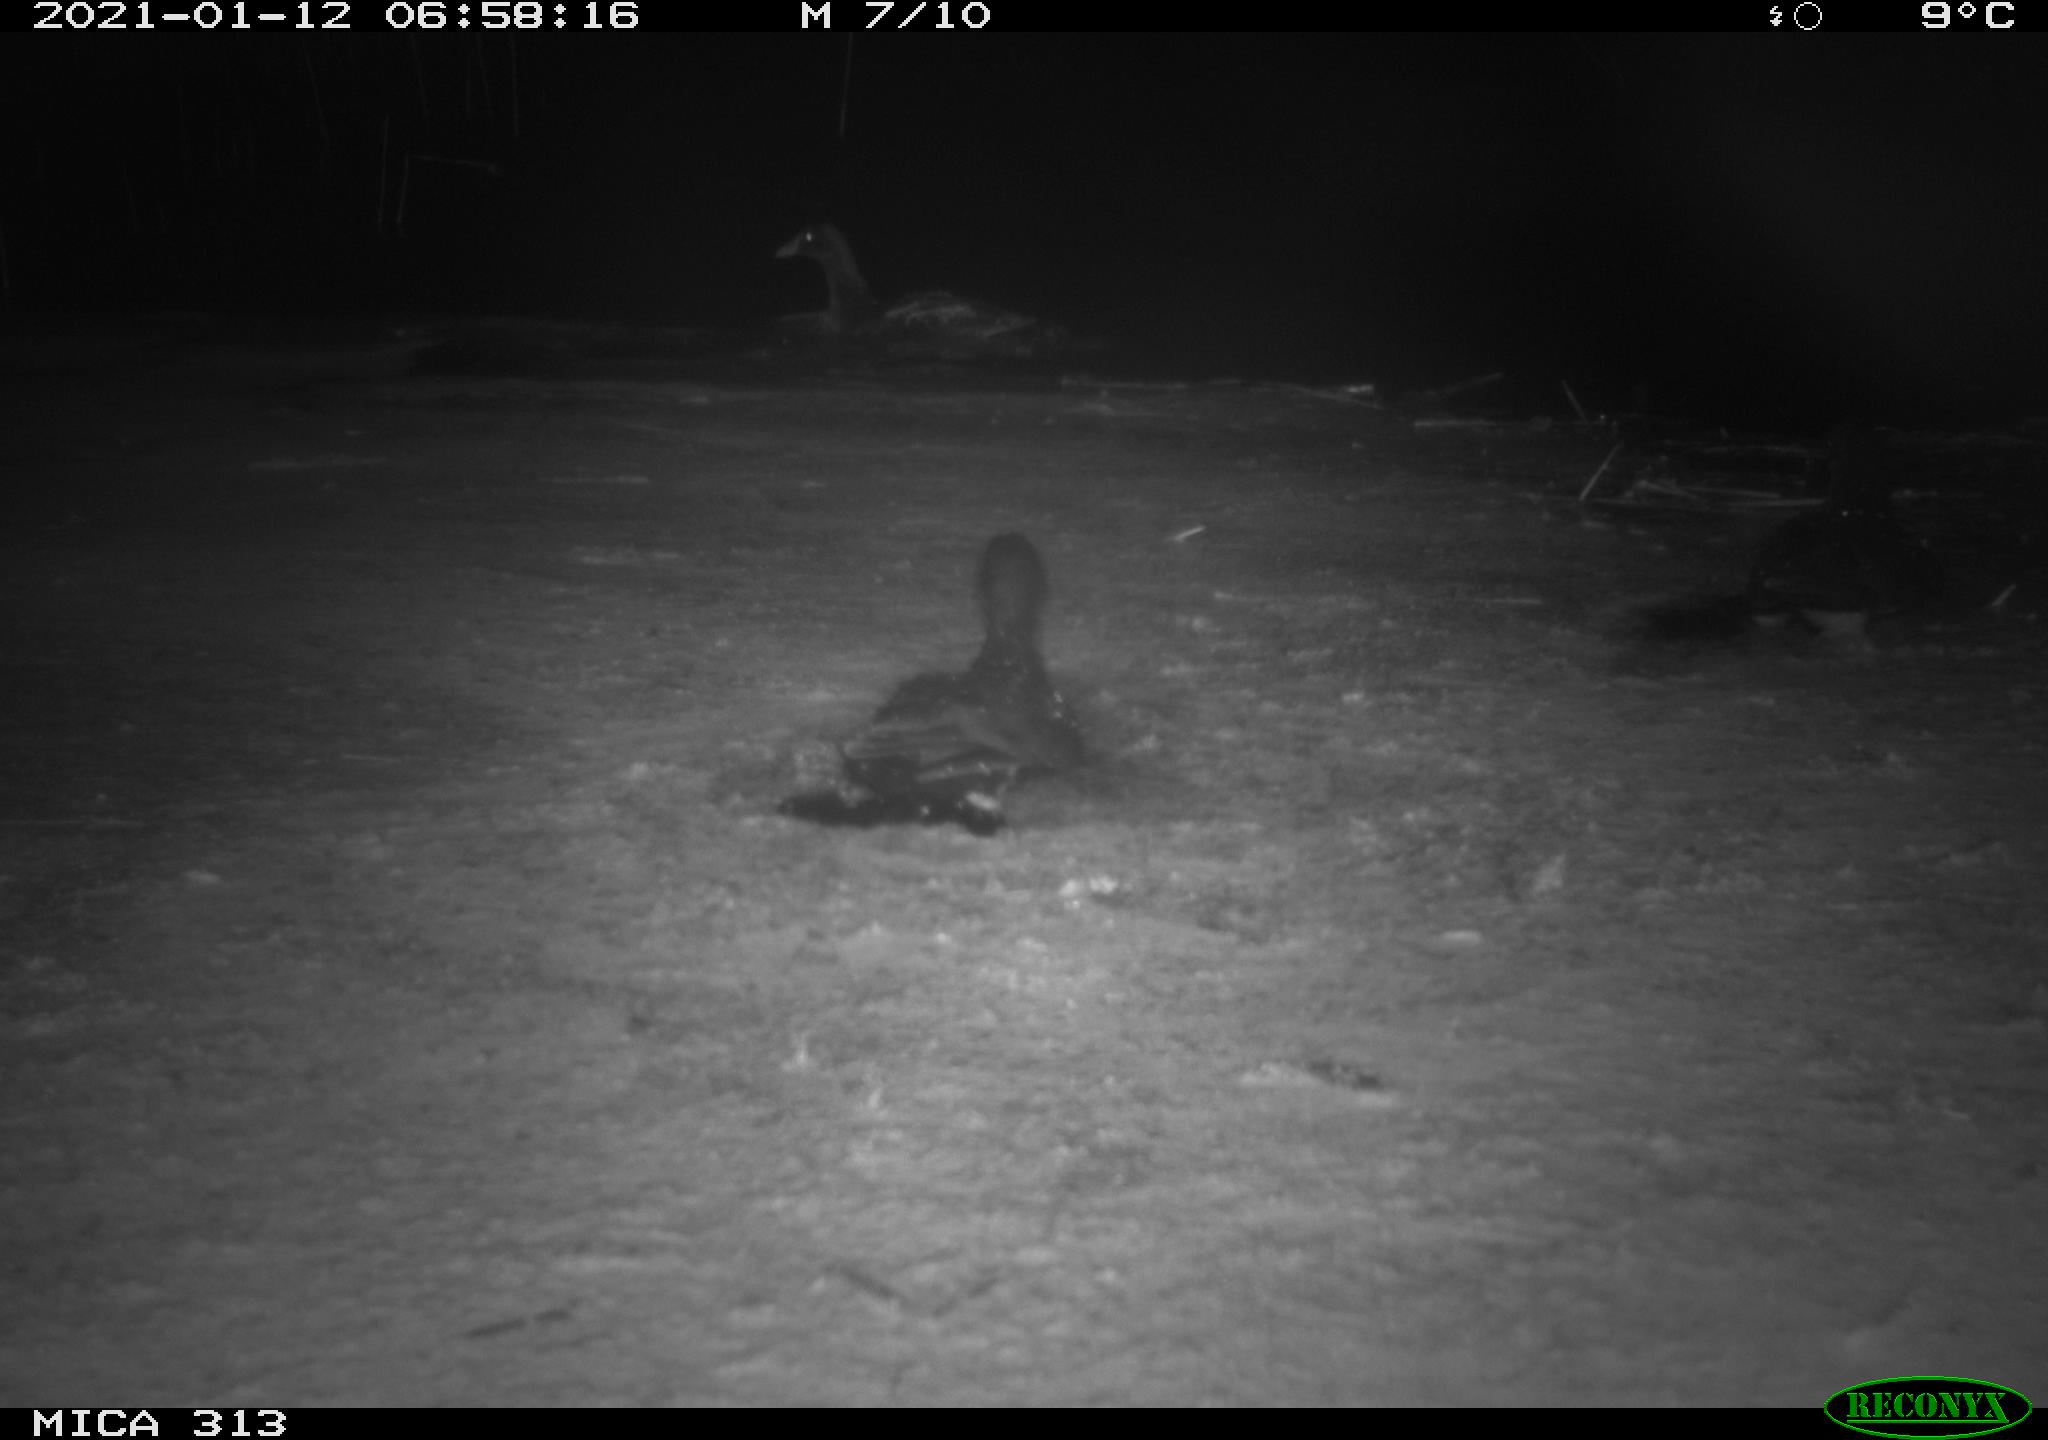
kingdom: Animalia
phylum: Chordata
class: Aves
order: Gruiformes
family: Rallidae
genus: Gallinula
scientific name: Gallinula chloropus
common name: Common moorhen
